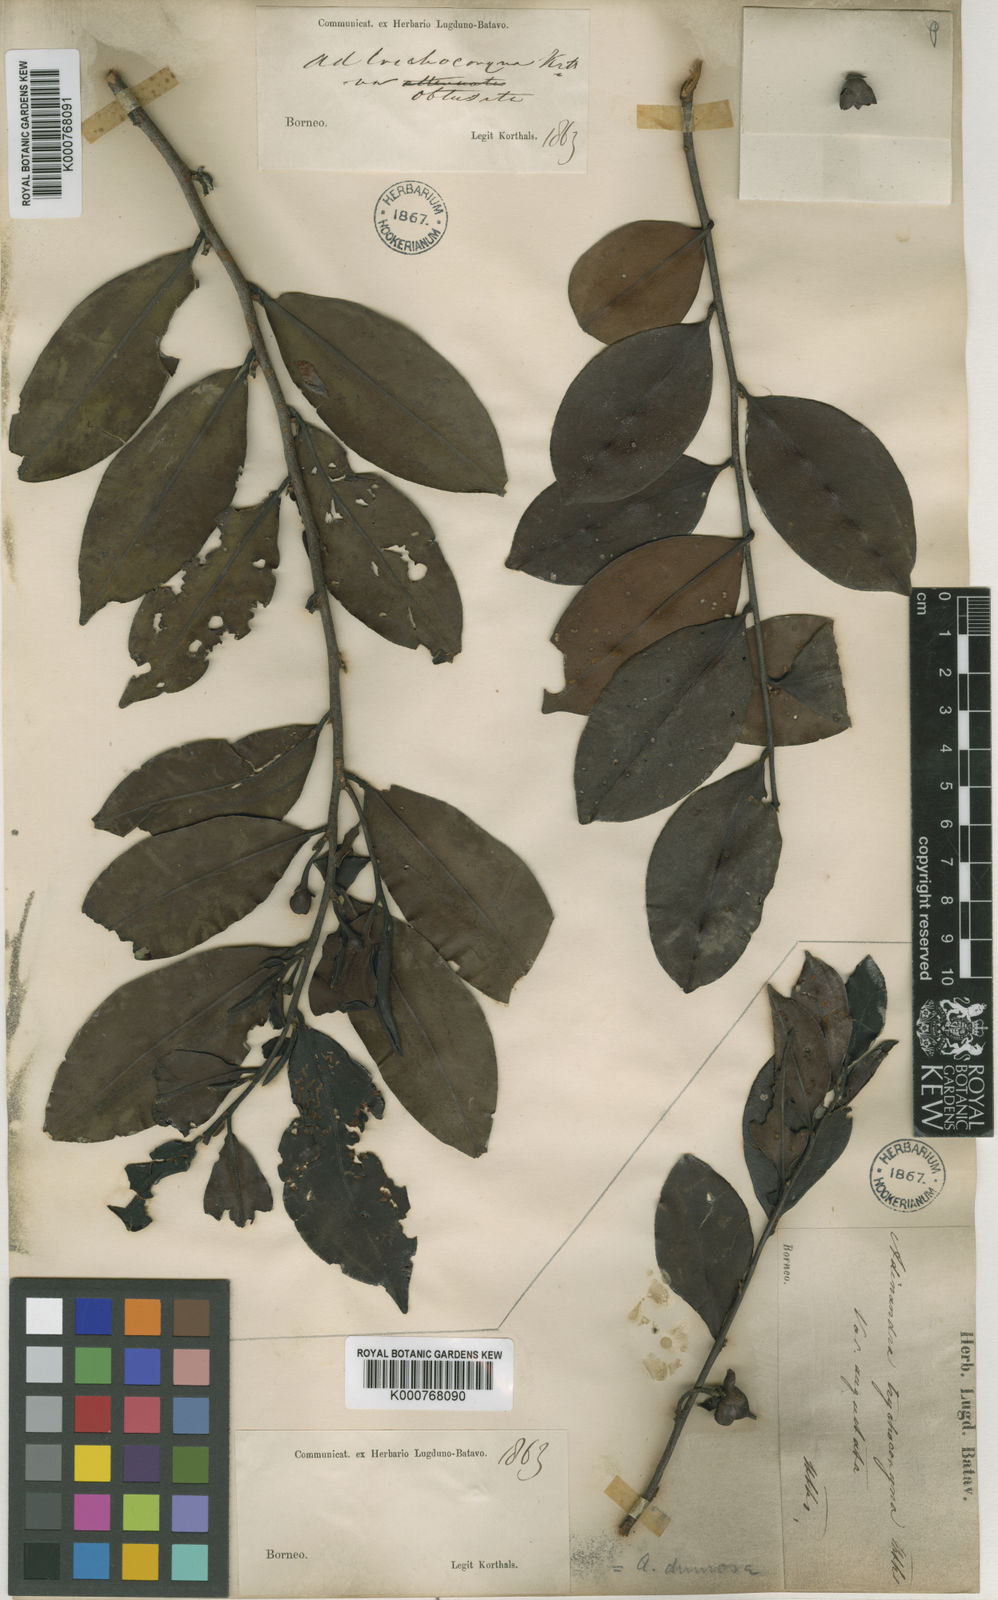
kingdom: Plantae
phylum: Tracheophyta
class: Magnoliopsida
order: Ericales
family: Pentaphylacaceae
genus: Adinandra
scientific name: Adinandra dumosa
